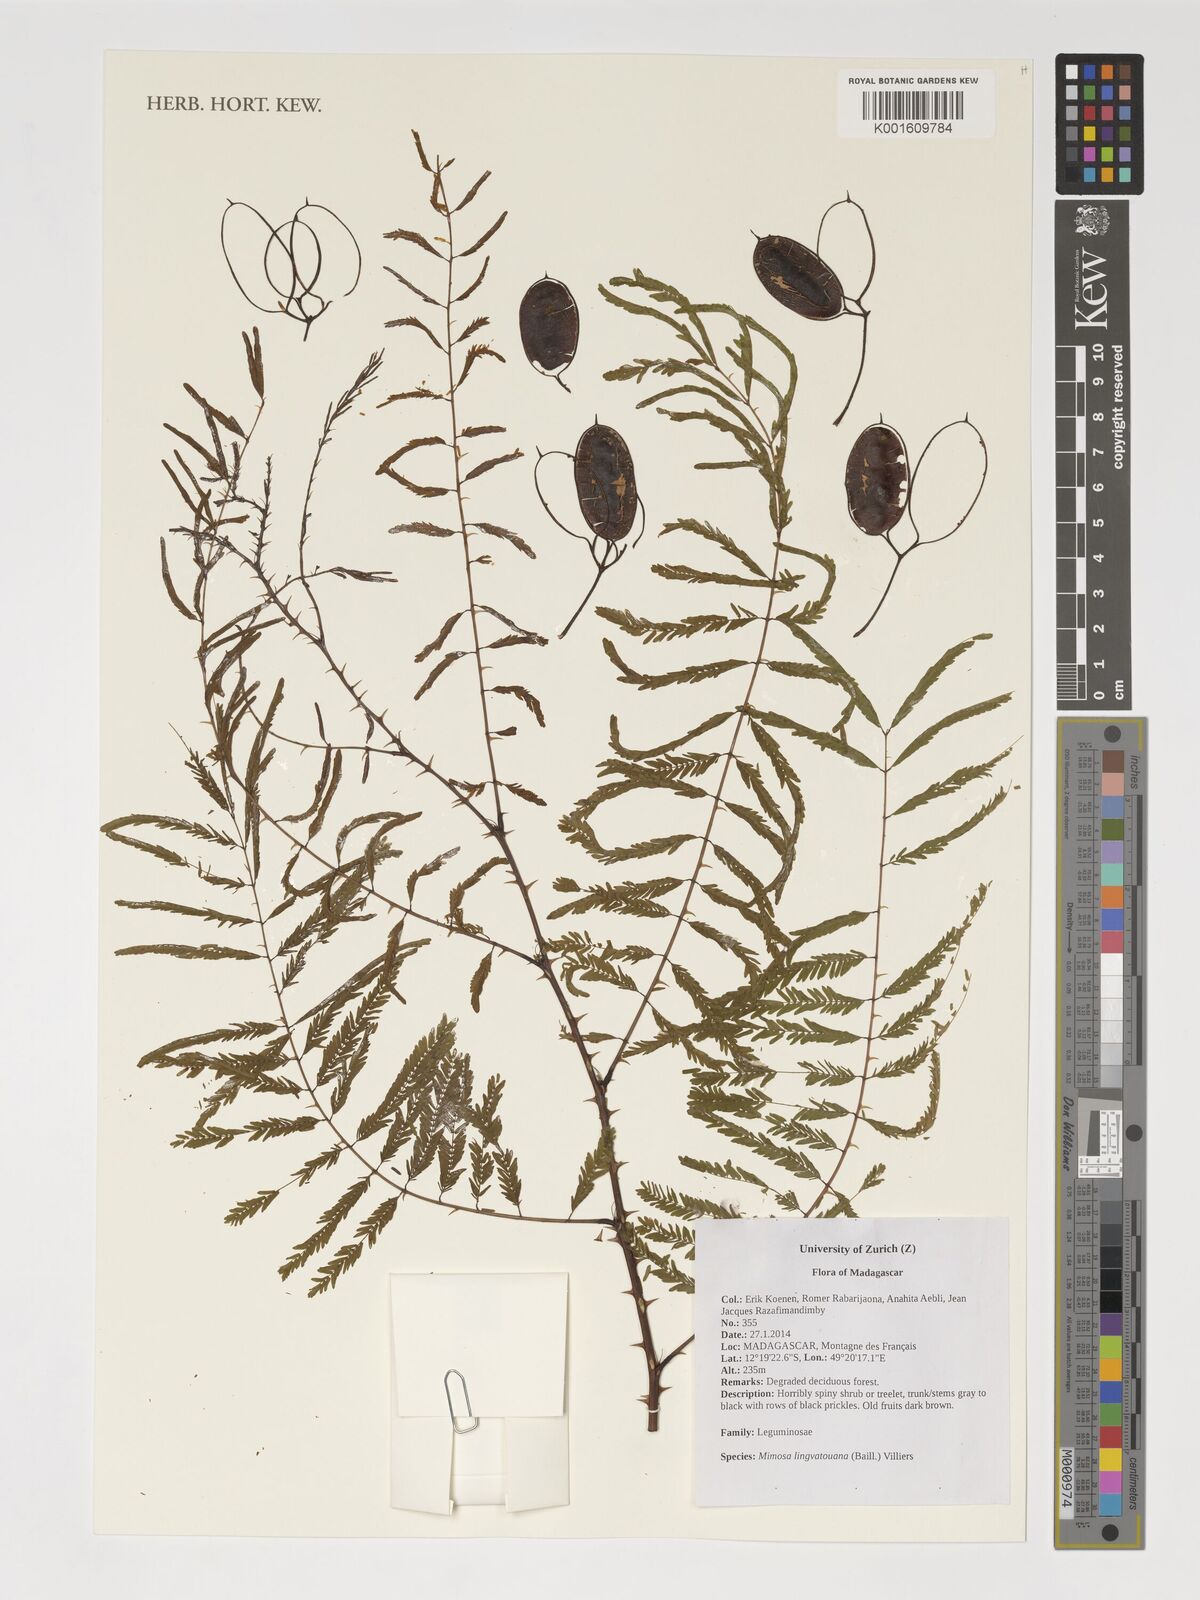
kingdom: Plantae
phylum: Tracheophyta
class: Magnoliopsida
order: Fabales
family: Fabaceae
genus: Mimosa
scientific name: Mimosa lingvatouana
